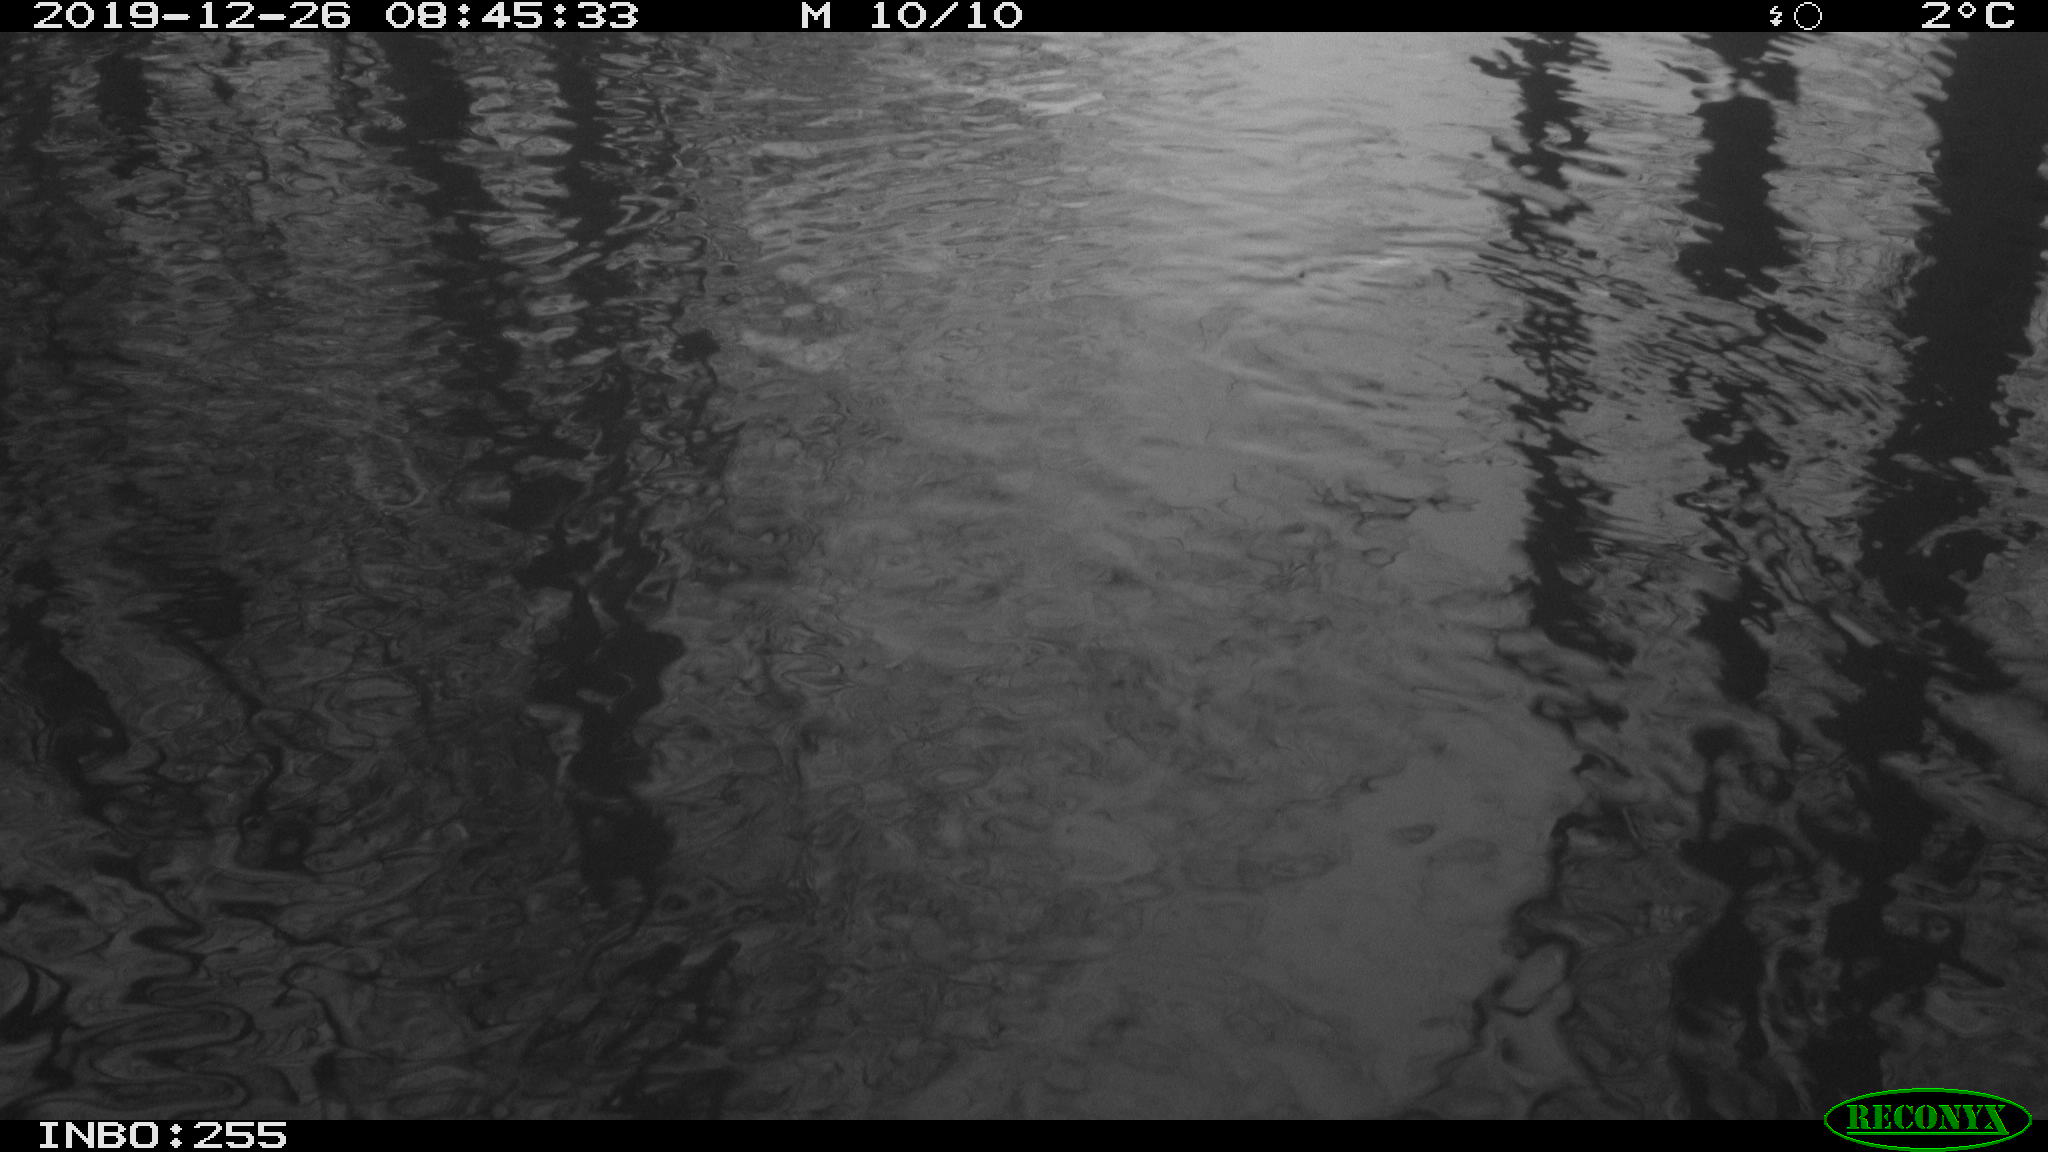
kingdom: Animalia
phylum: Chordata
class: Aves
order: Gruiformes
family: Rallidae
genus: Fulica
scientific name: Fulica atra
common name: Eurasian coot
